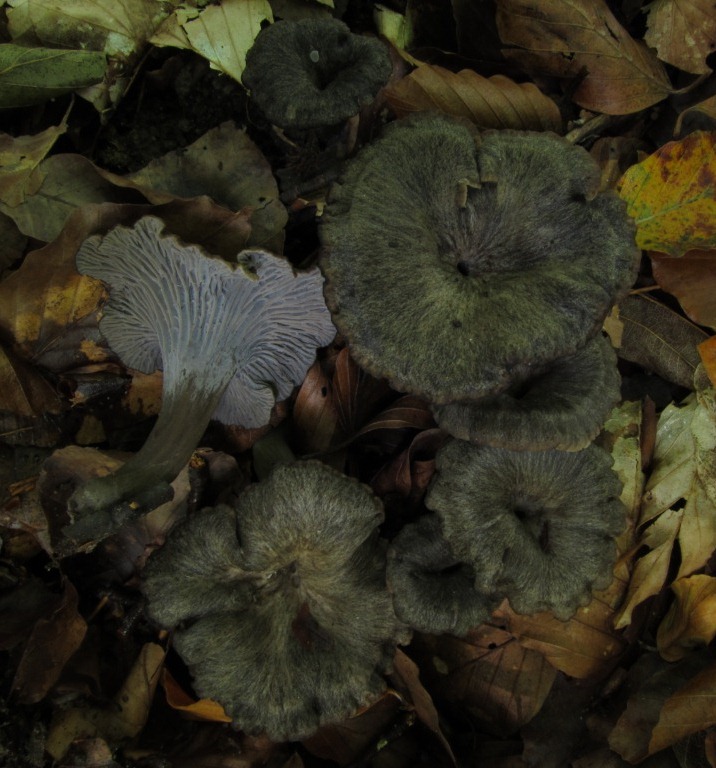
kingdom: Fungi
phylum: Basidiomycota
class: Agaricomycetes
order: Cantharellales
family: Hydnaceae
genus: Cantharellus
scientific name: Cantharellus cinereus
